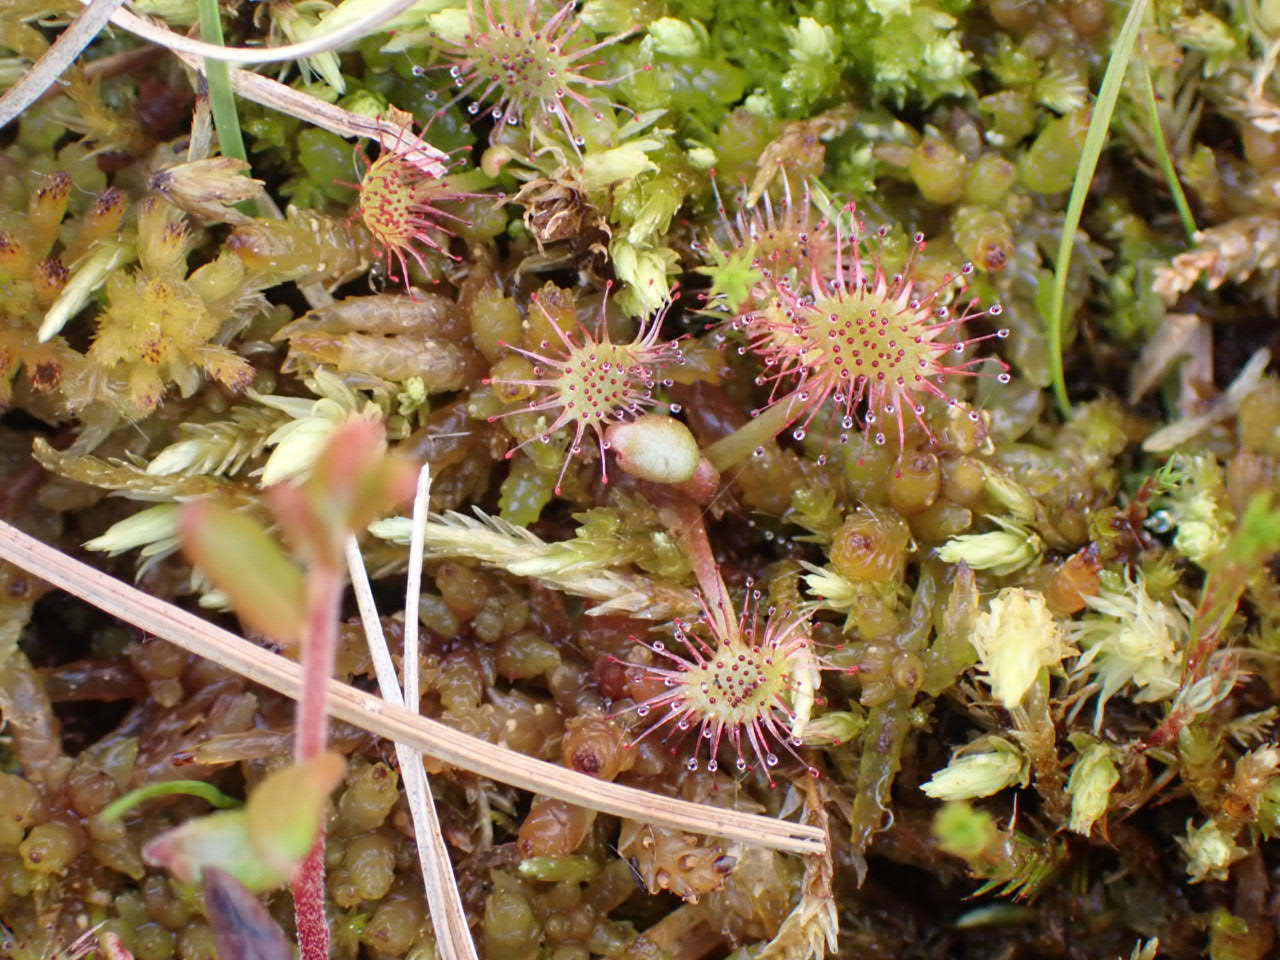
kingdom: Plantae
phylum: Tracheophyta
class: Magnoliopsida
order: Caryophyllales
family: Droseraceae
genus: Drosera
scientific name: Drosera rotundifolia
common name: Rundbladet soldug
